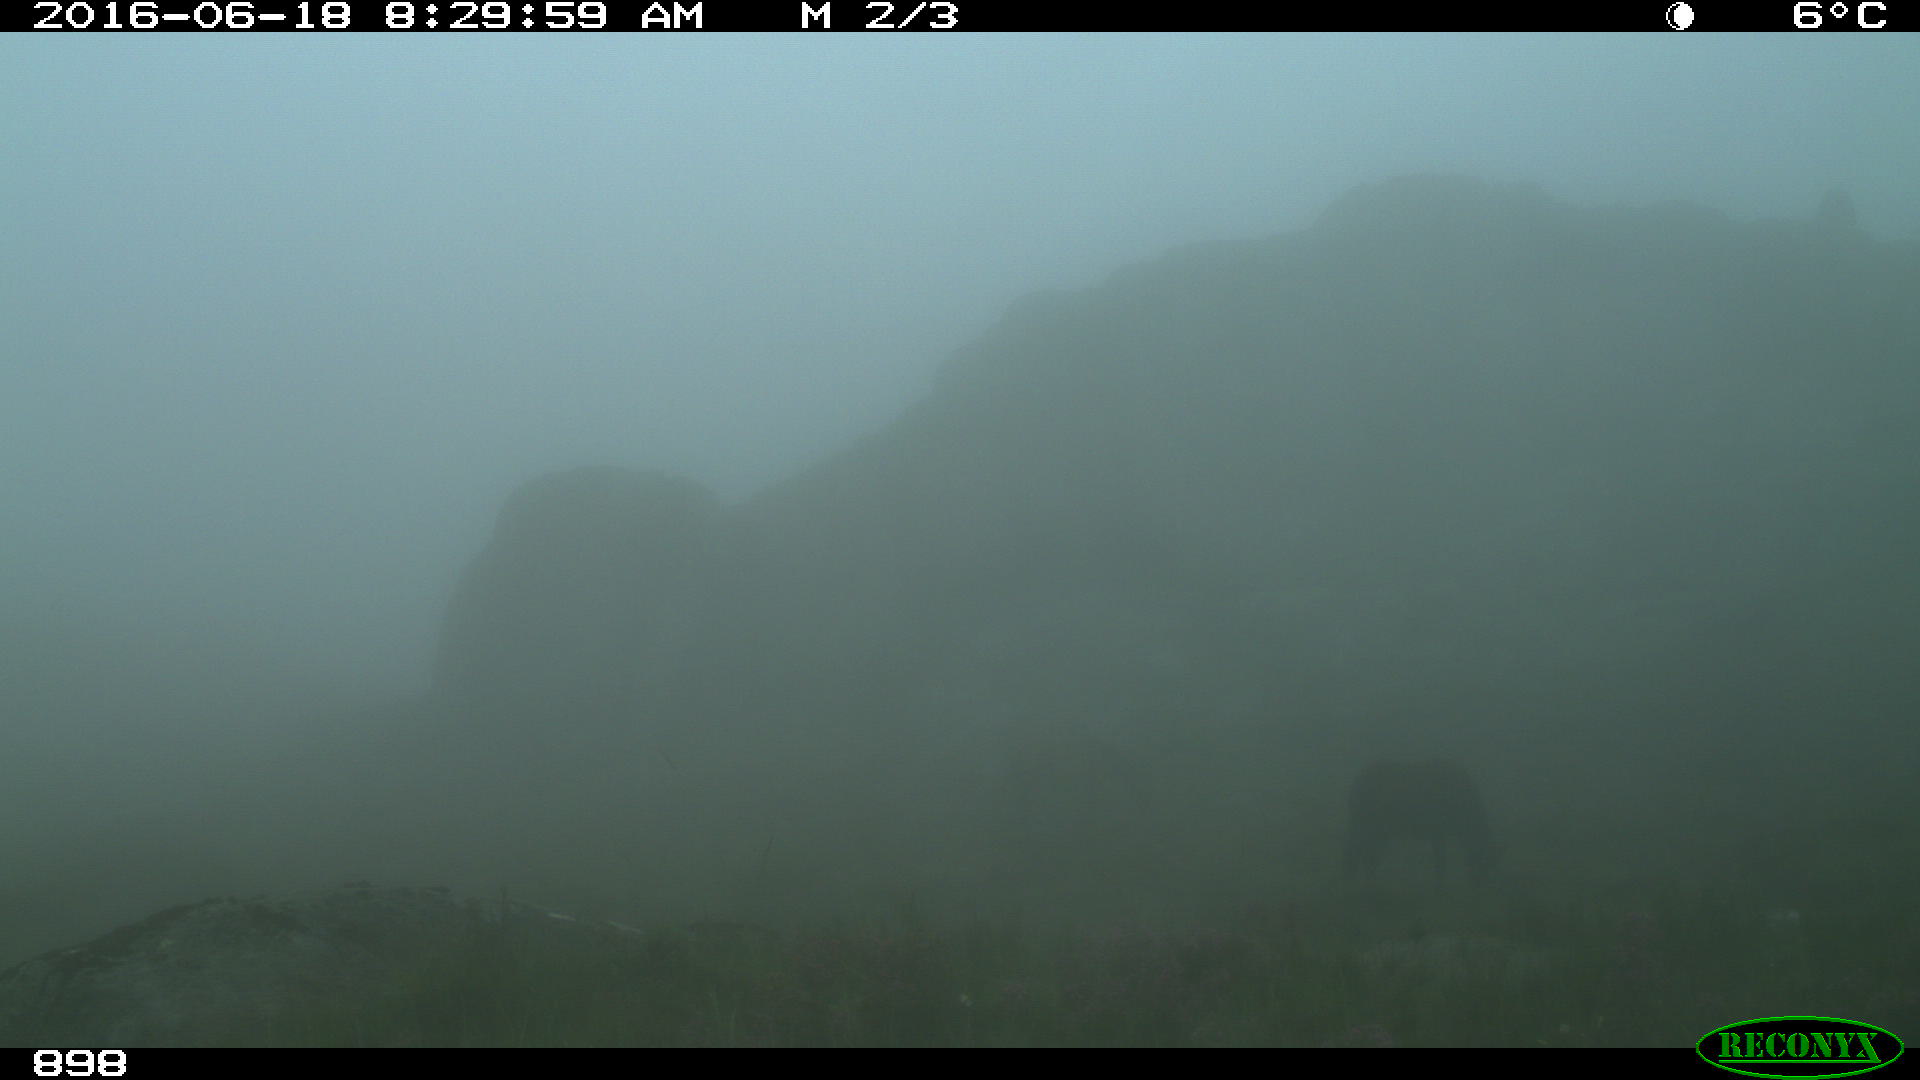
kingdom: Animalia
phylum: Chordata
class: Mammalia
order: Perissodactyla
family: Equidae
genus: Equus
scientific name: Equus caballus
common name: Horse
